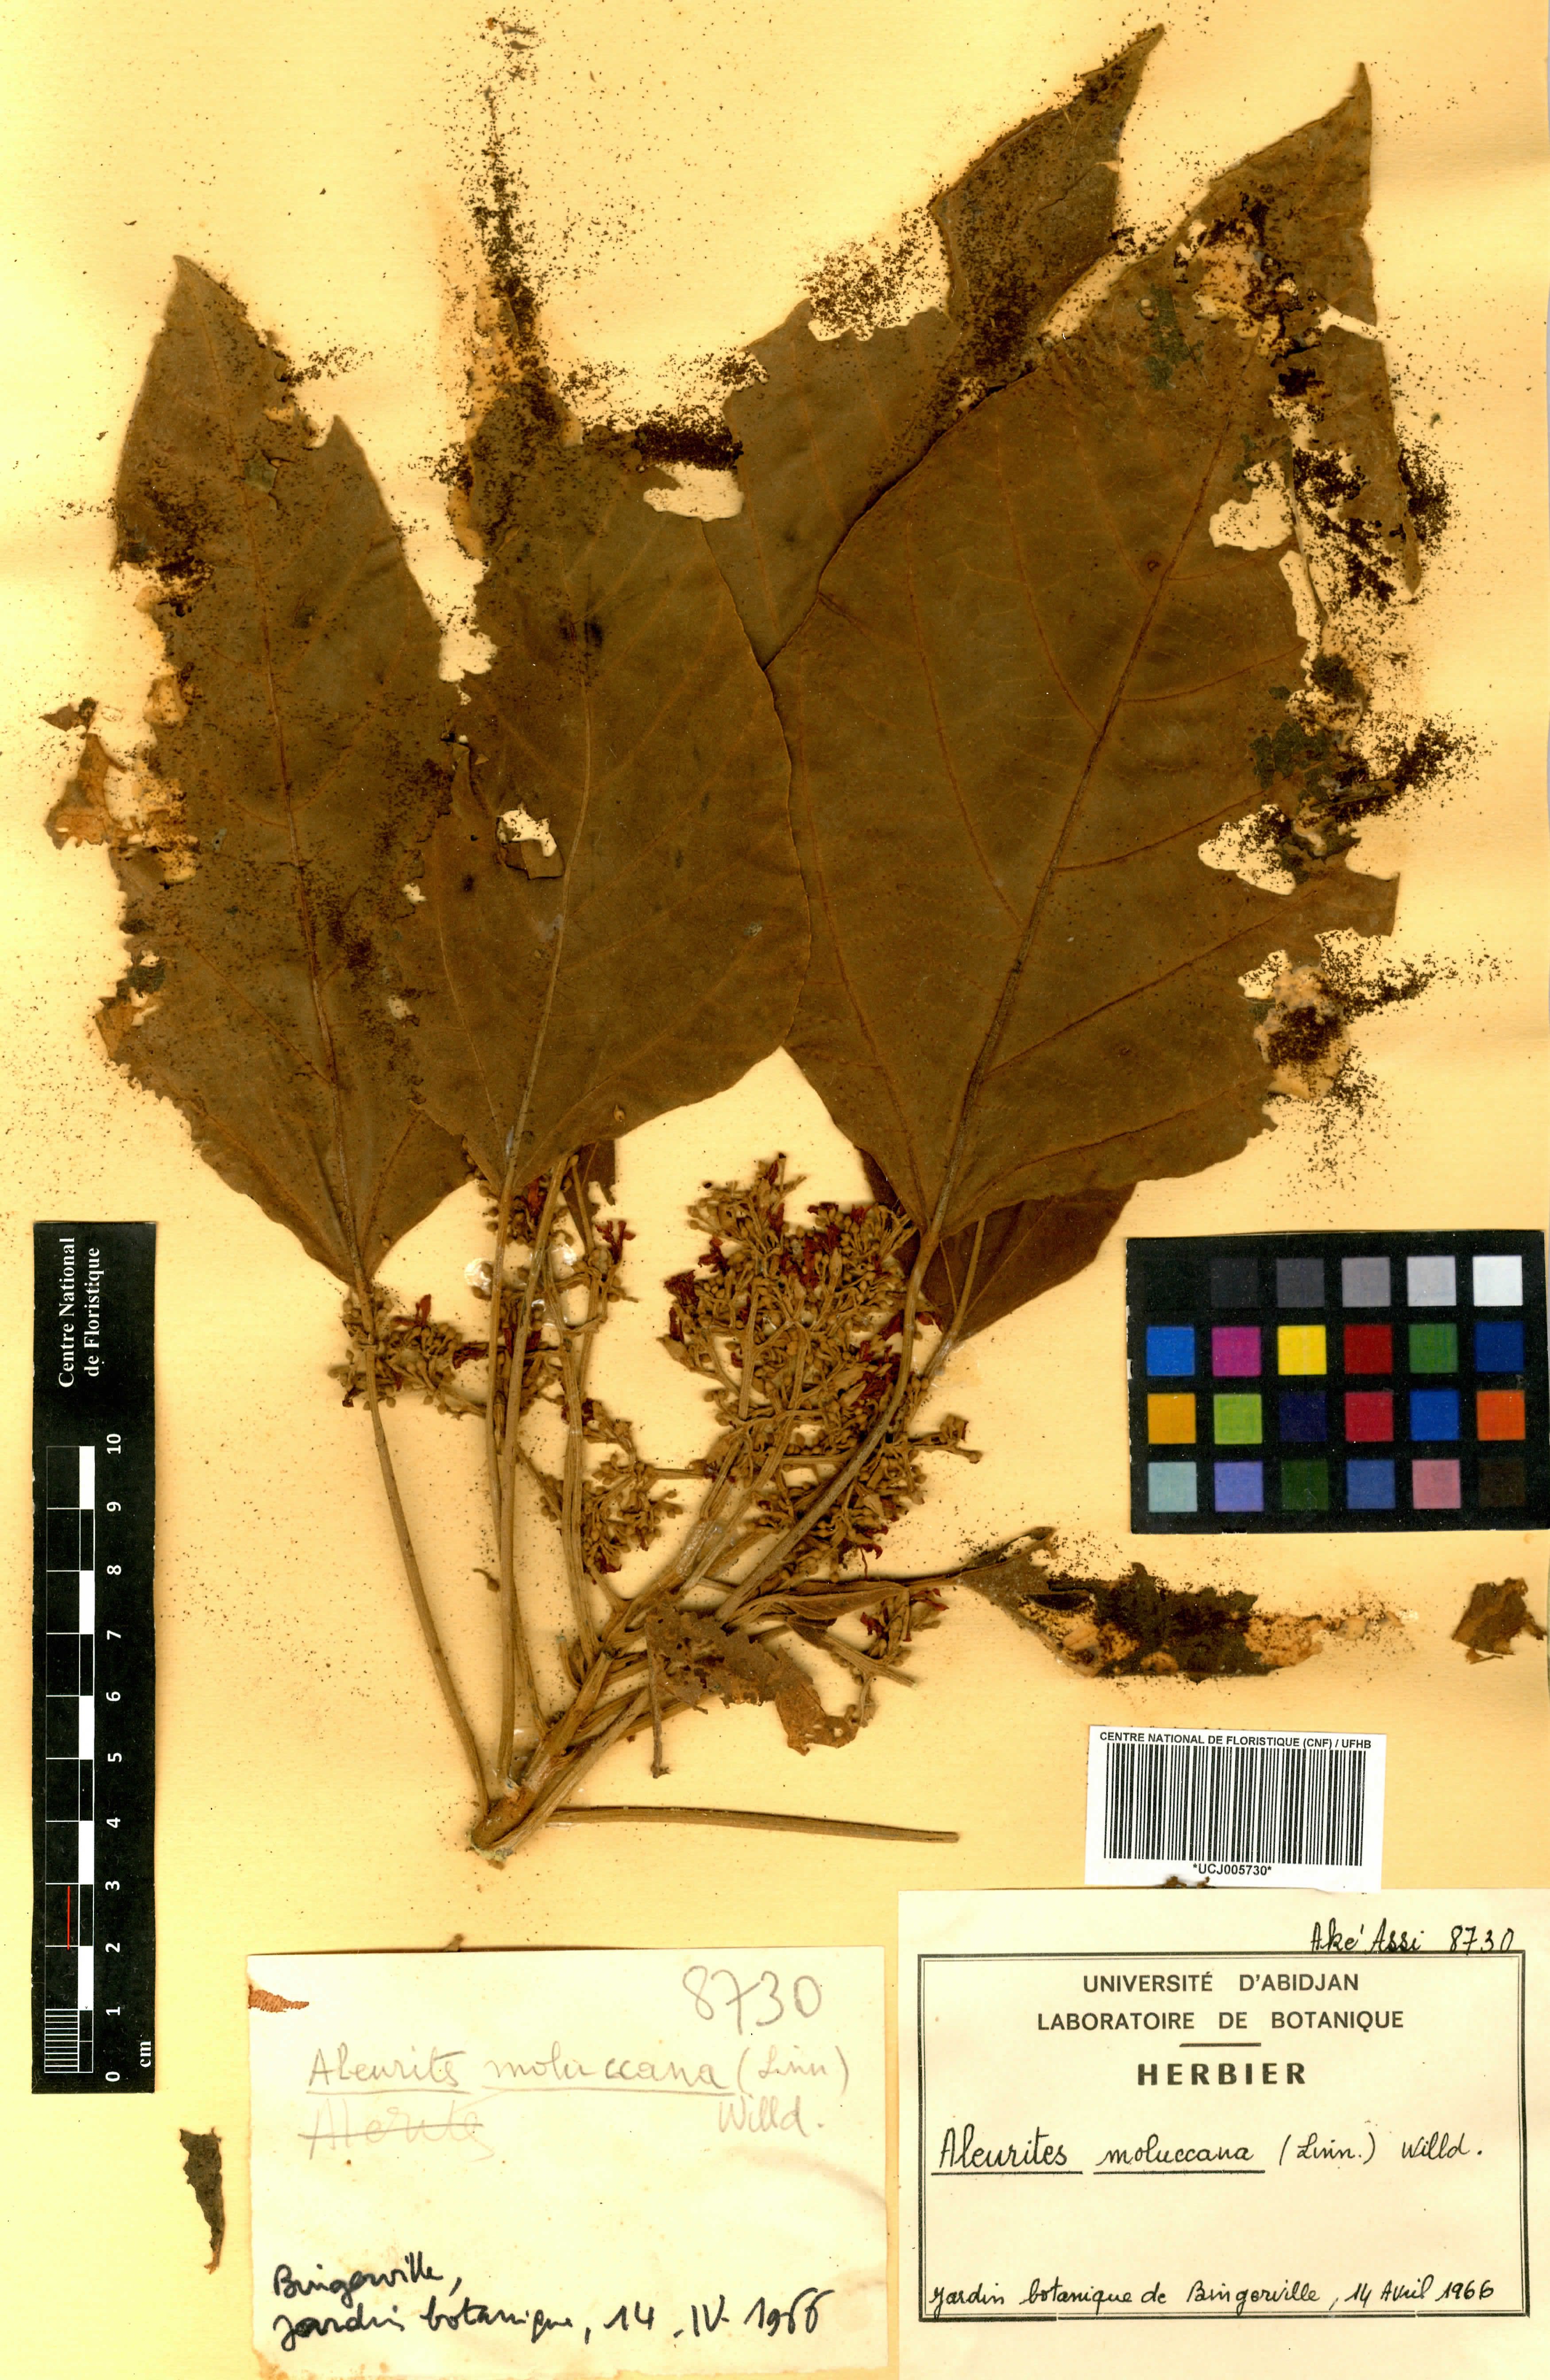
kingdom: Plantae
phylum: Tracheophyta
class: Magnoliopsida
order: Malpighiales
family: Euphorbiaceae
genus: Aleurites
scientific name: Aleurites moluccanus
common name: Candlenut tree
